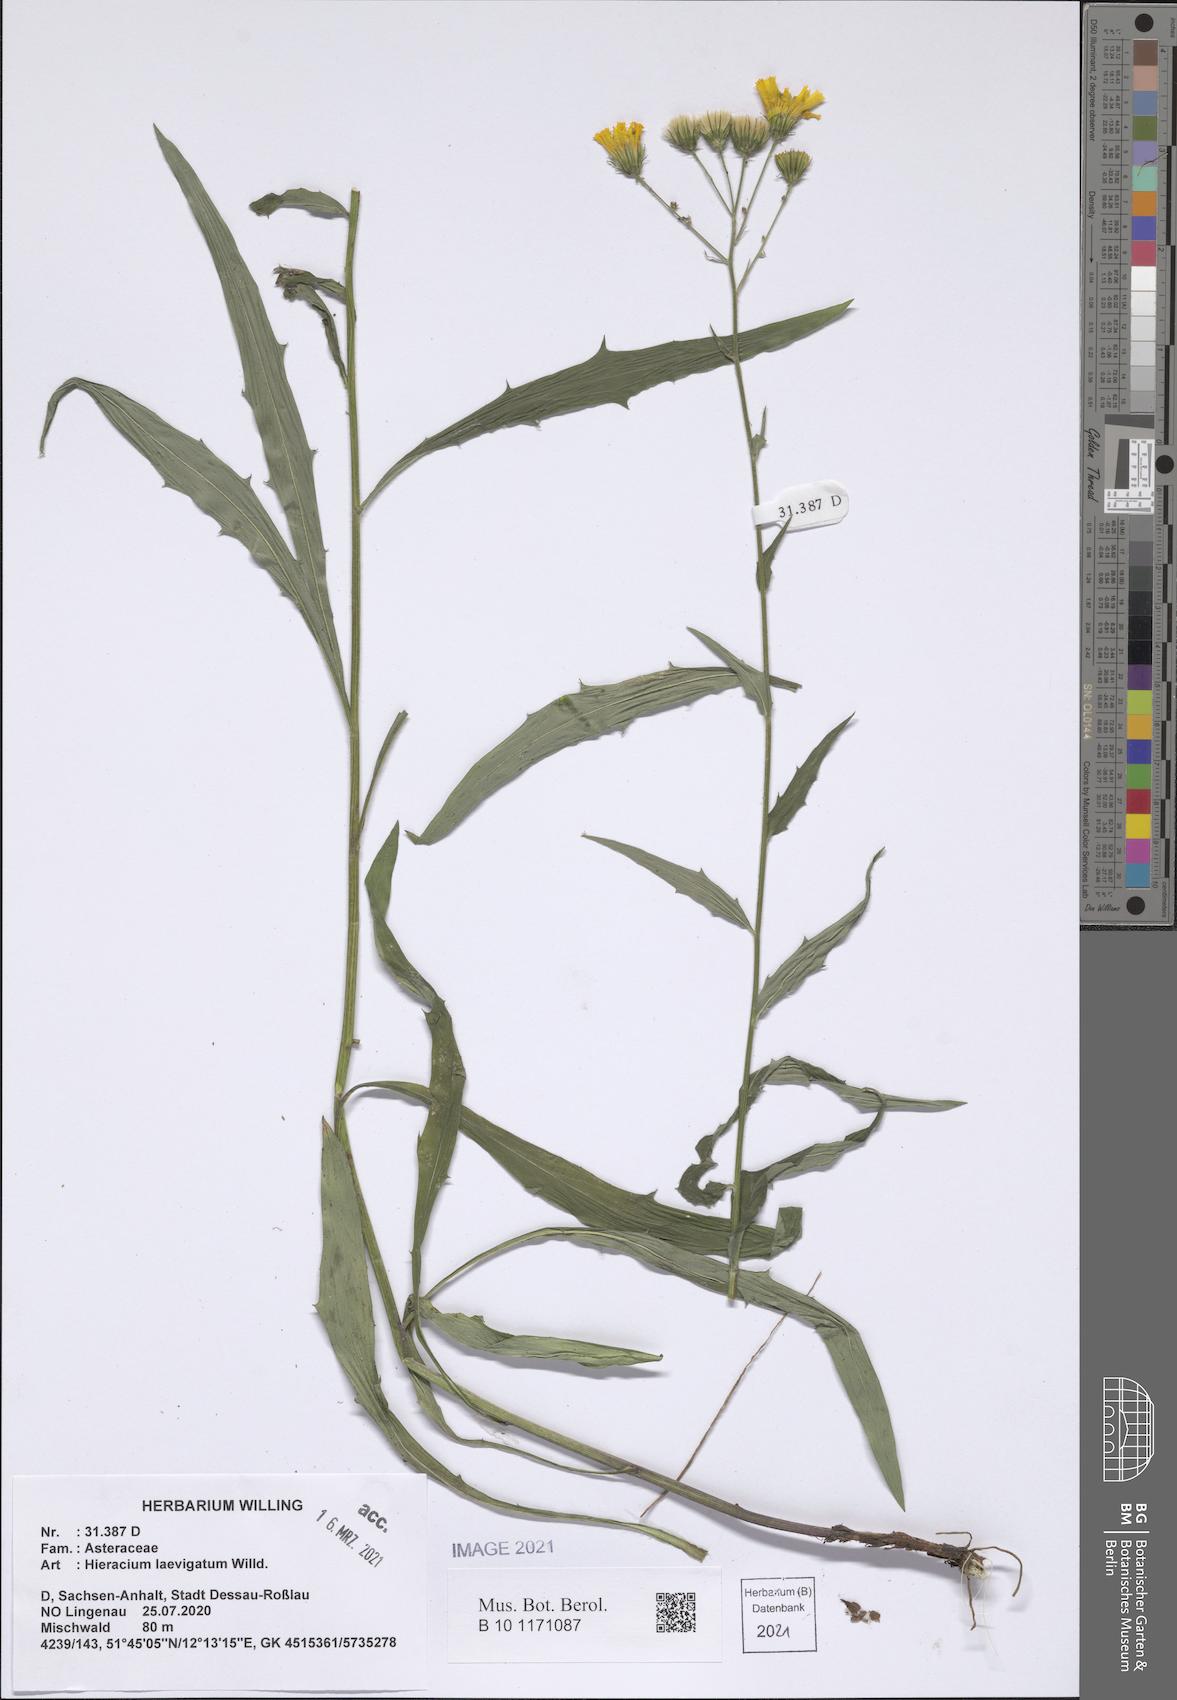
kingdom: Plantae
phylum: Tracheophyta
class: Magnoliopsida
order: Asterales
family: Asteraceae
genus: Hieracium
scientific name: Hieracium laevigatum
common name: Smooth hawkweed
